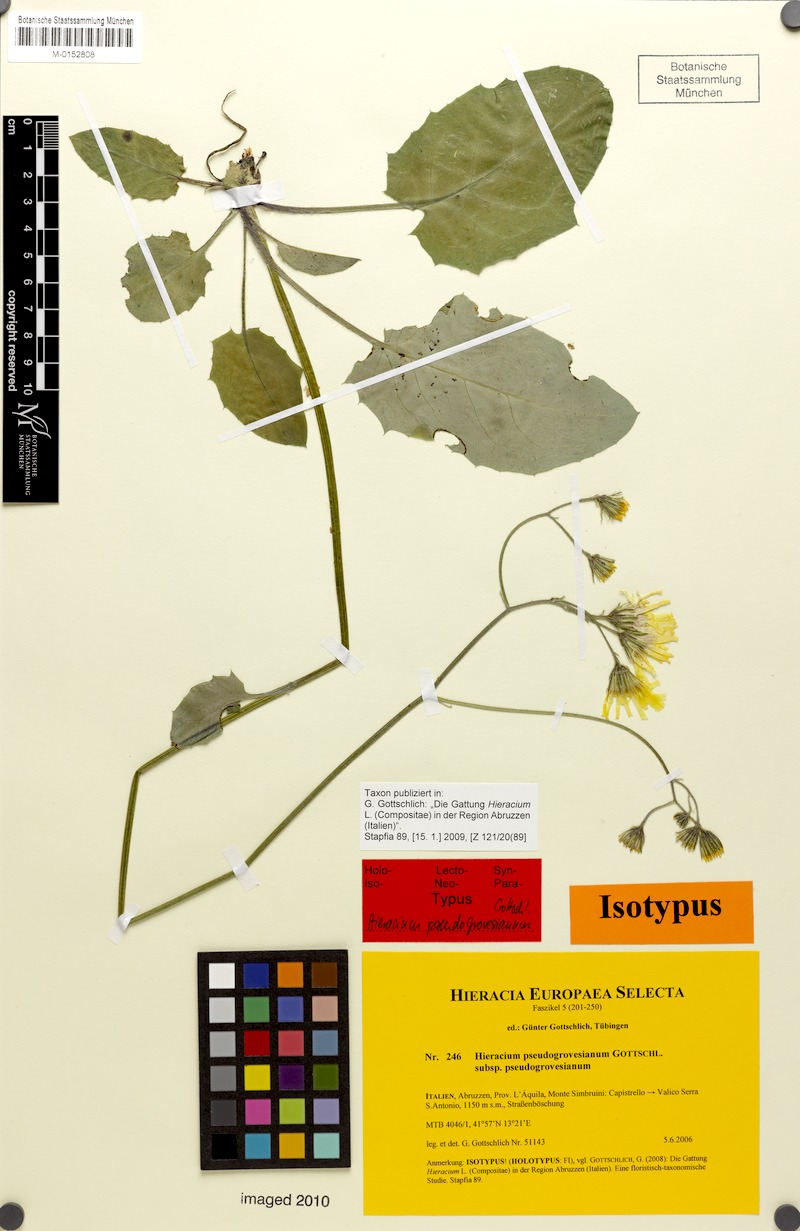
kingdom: Plantae
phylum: Tracheophyta
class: Magnoliopsida
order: Asterales
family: Asteraceae
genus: Hieracium
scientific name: Hieracium pseudogrovesianum
